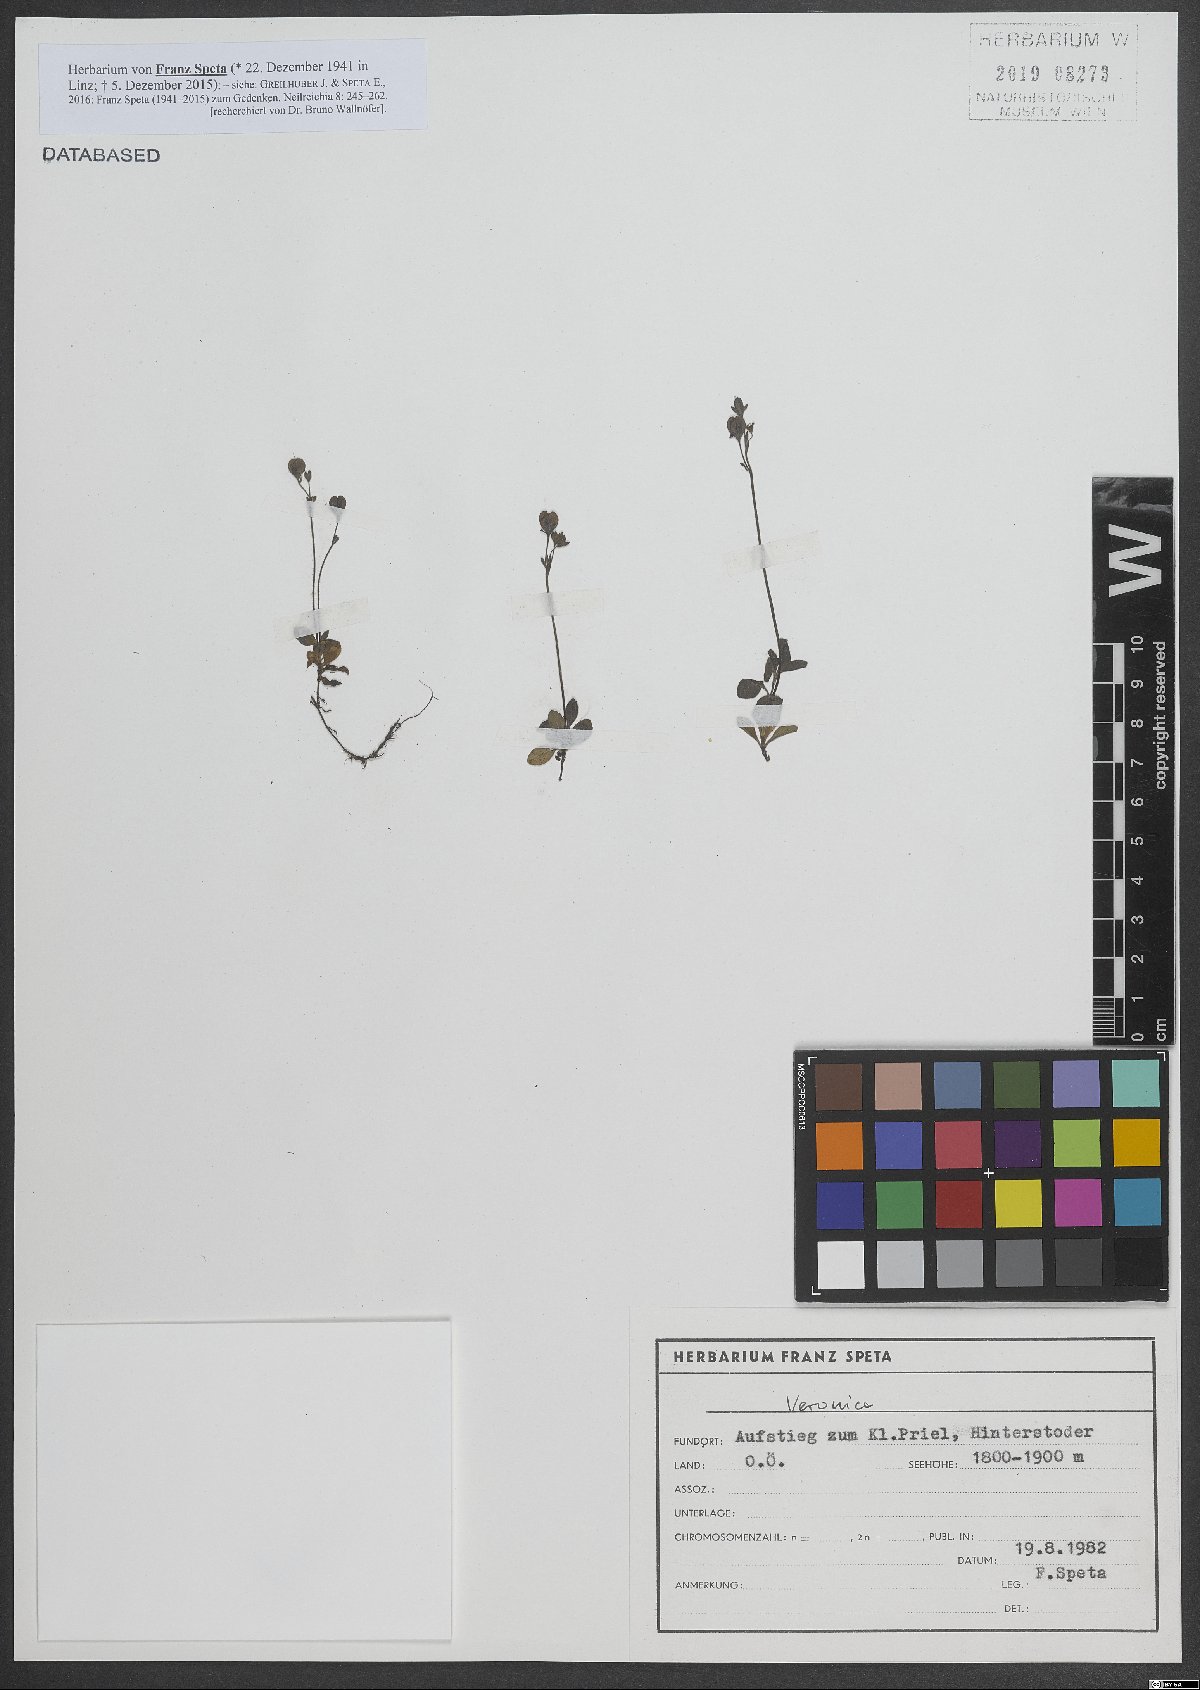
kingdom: Plantae
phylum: Tracheophyta
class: Magnoliopsida
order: Lamiales
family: Plantaginaceae
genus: Veronica
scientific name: Veronica
